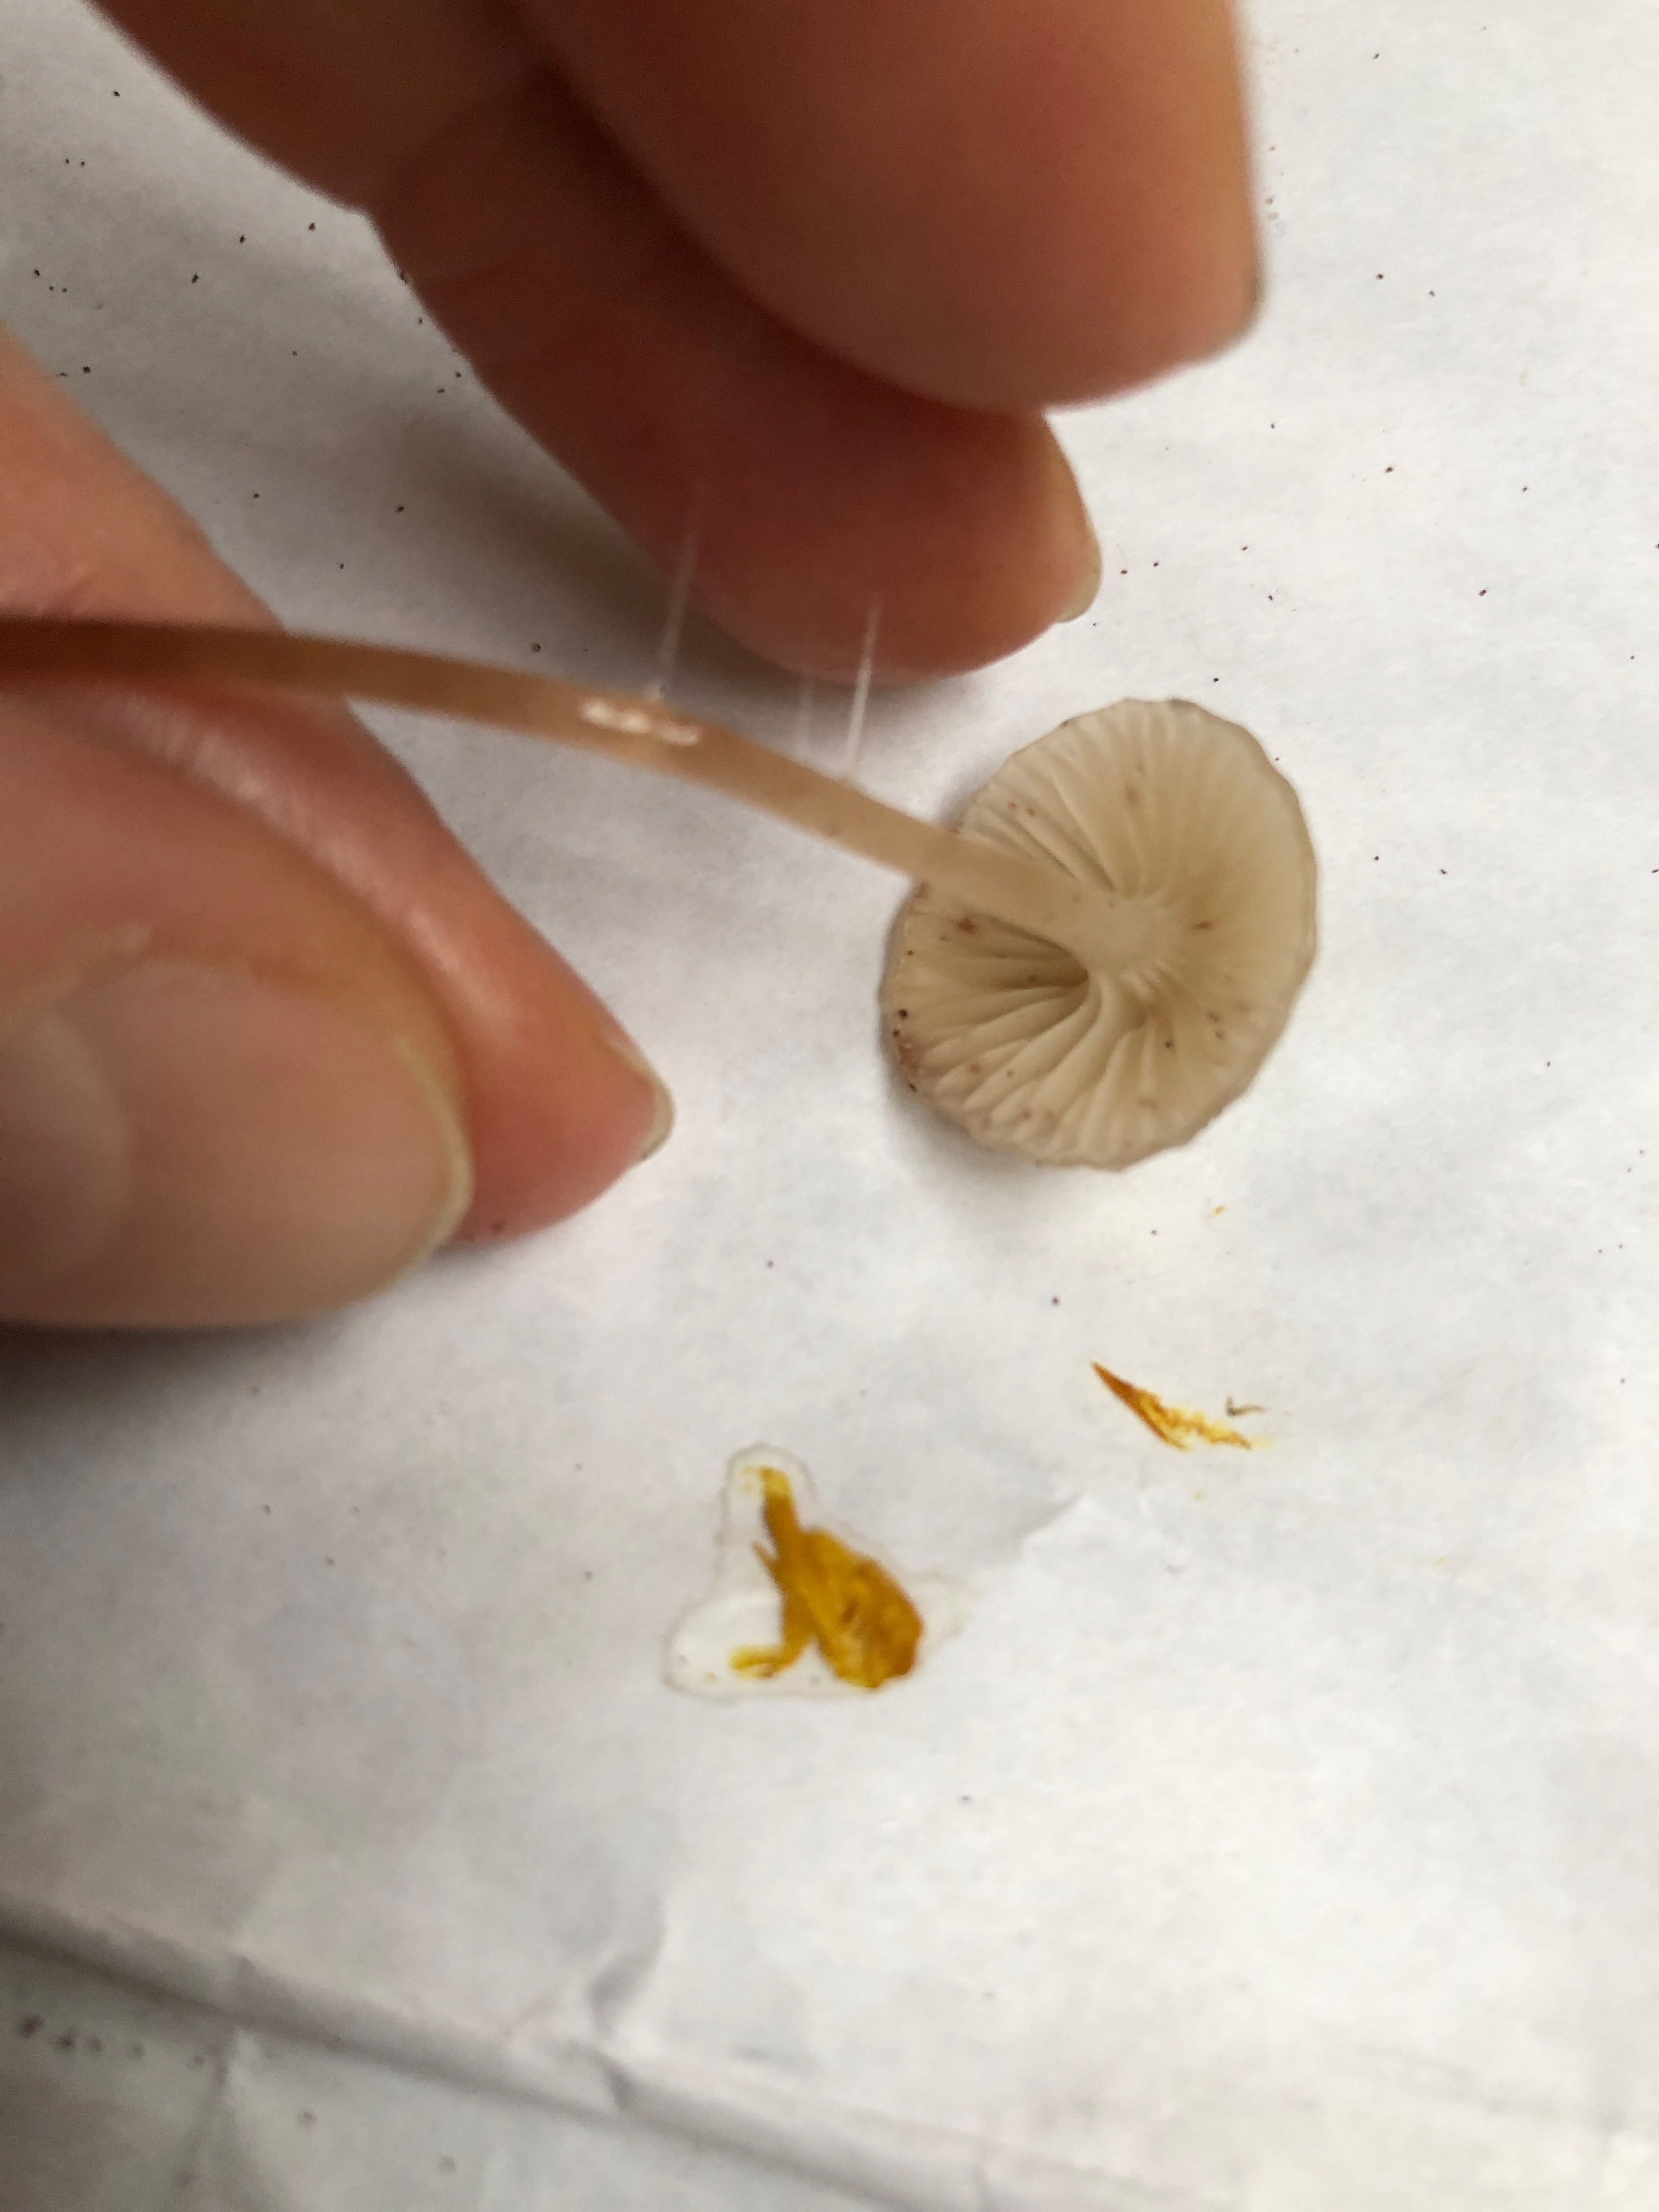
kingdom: Fungi
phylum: Basidiomycota
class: Agaricomycetes
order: Agaricales
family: Mycenaceae
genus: Roridomyces
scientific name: Roridomyces roridus
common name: slimfod
